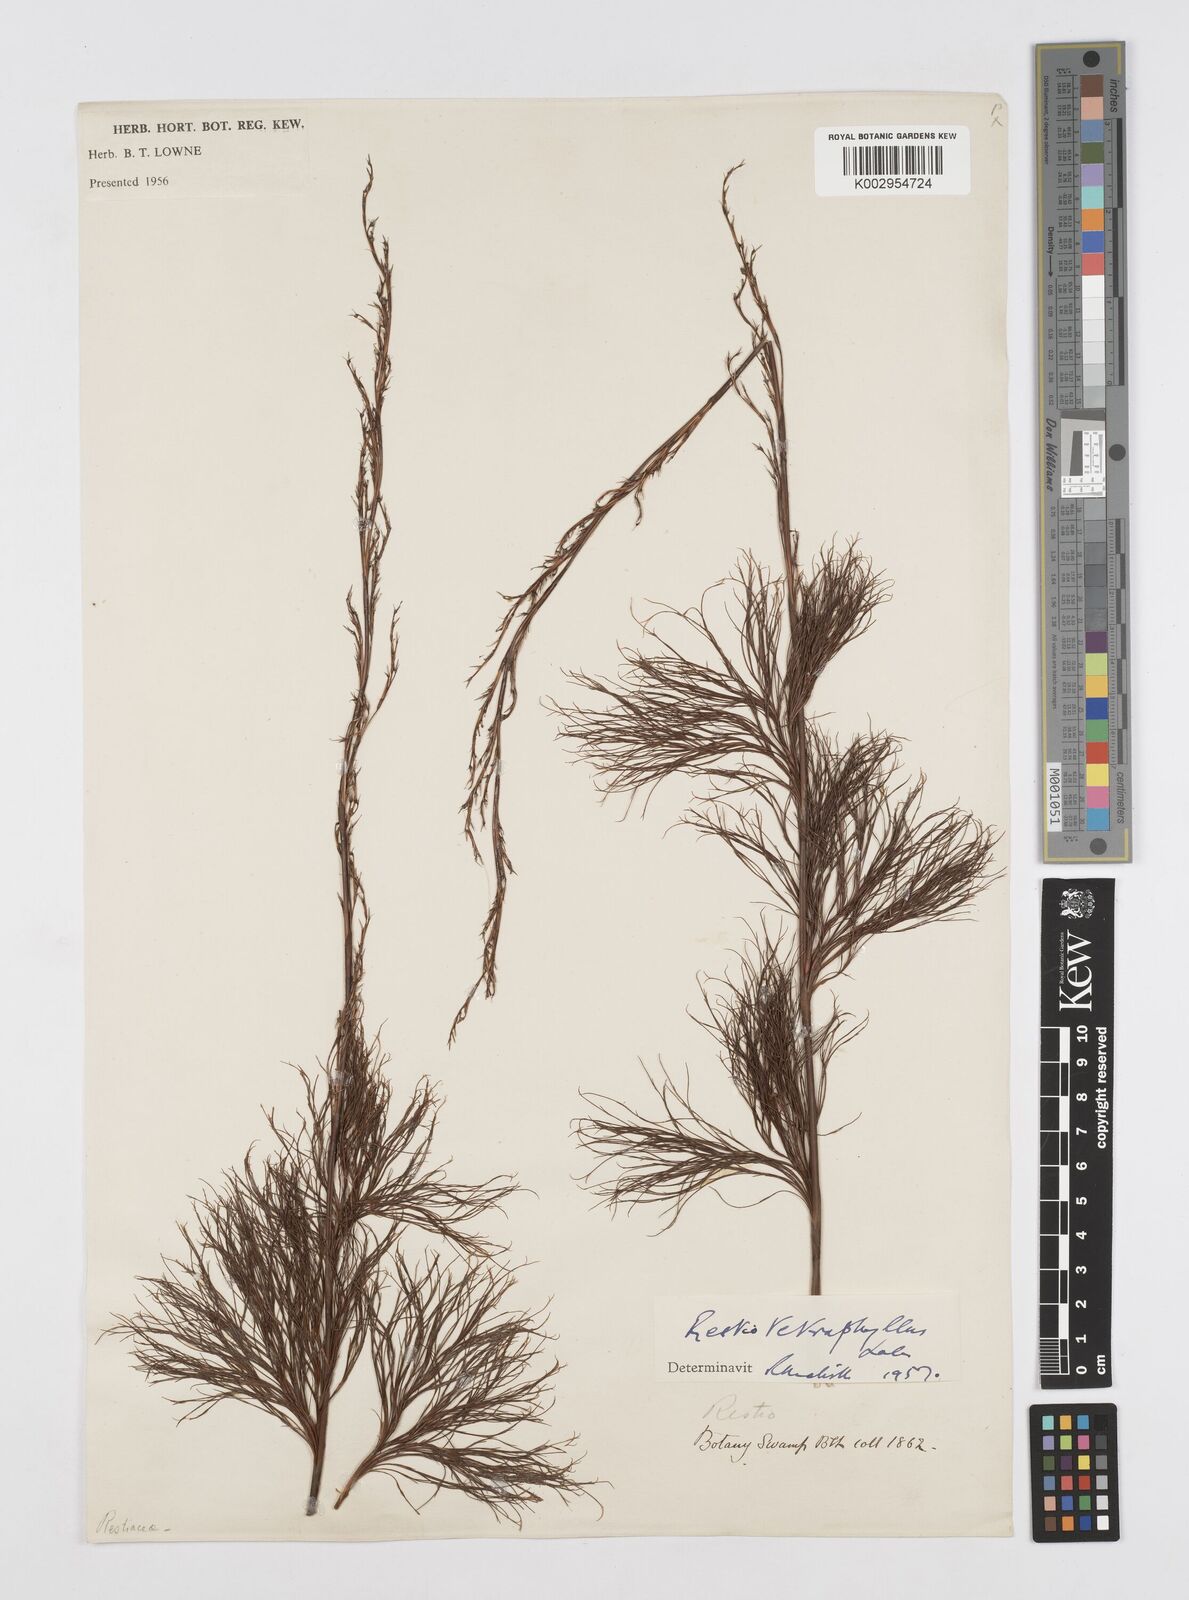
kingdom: Plantae
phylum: Tracheophyta
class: Liliopsida
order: Poales
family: Restionaceae
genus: Baloskion
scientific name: Baloskion tetraphyllum
